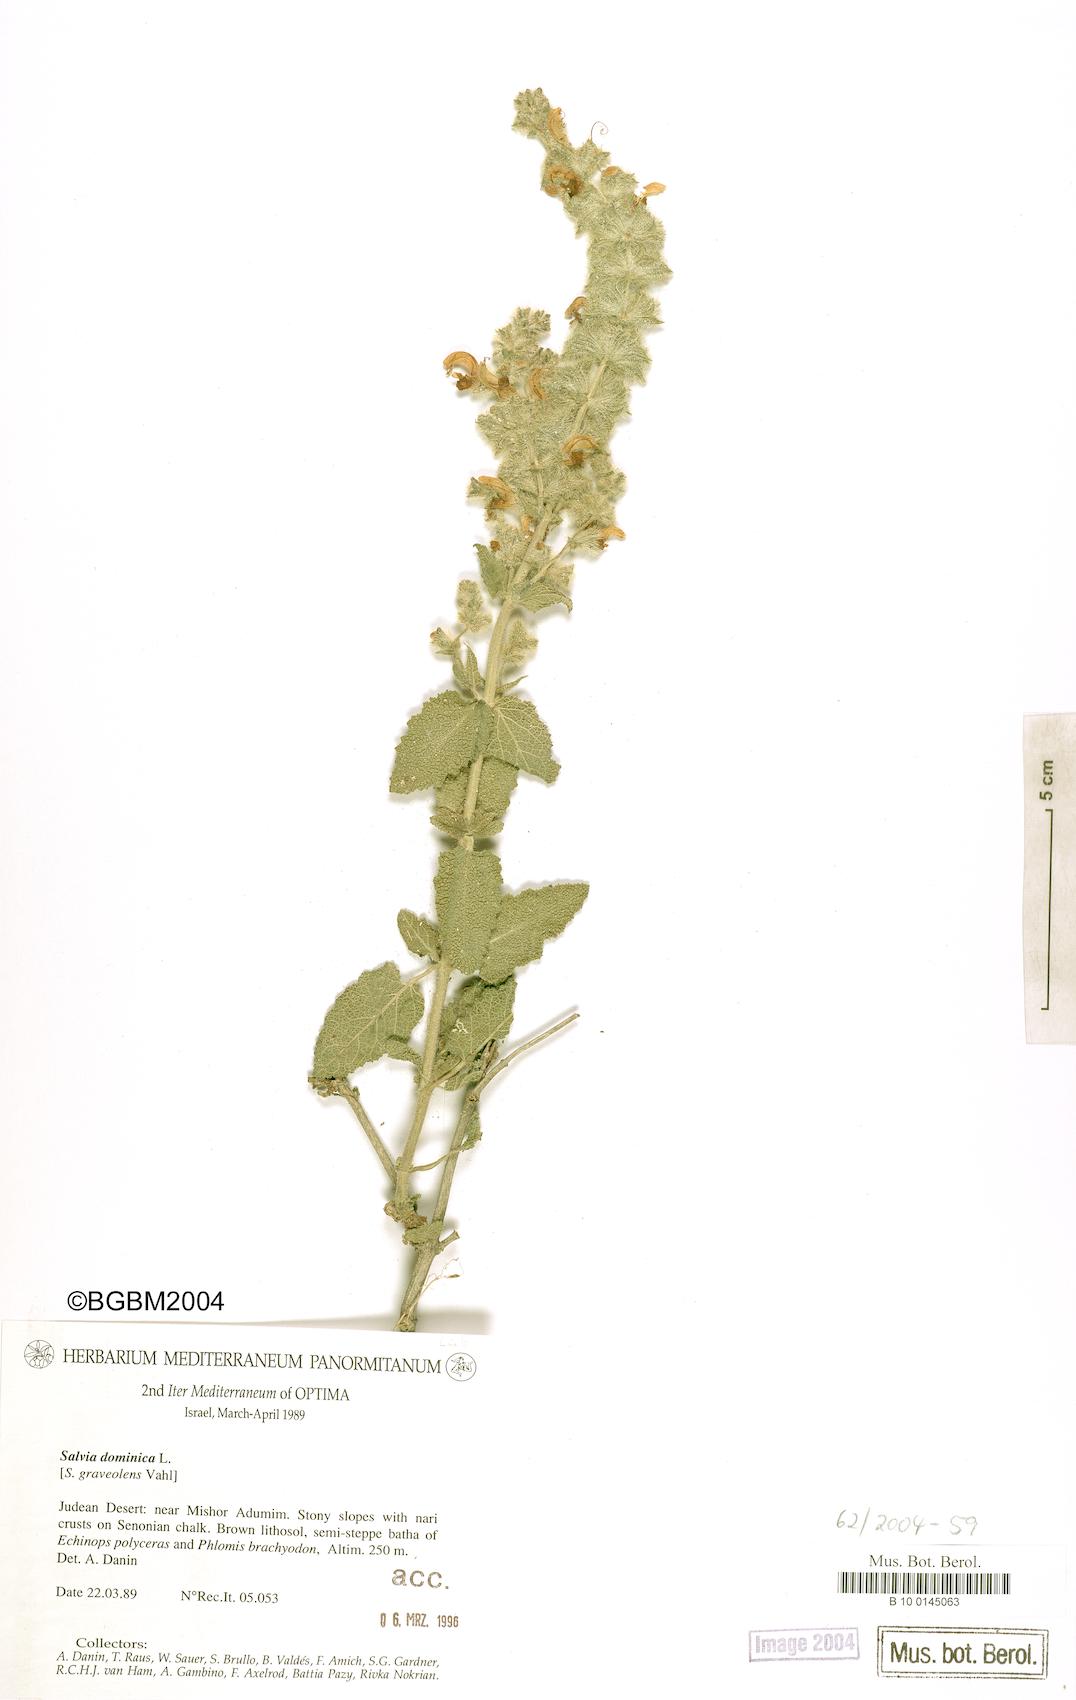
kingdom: Plantae
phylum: Tracheophyta
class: Magnoliopsida
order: Lamiales
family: Lamiaceae
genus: Salvia
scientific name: Salvia dominica
